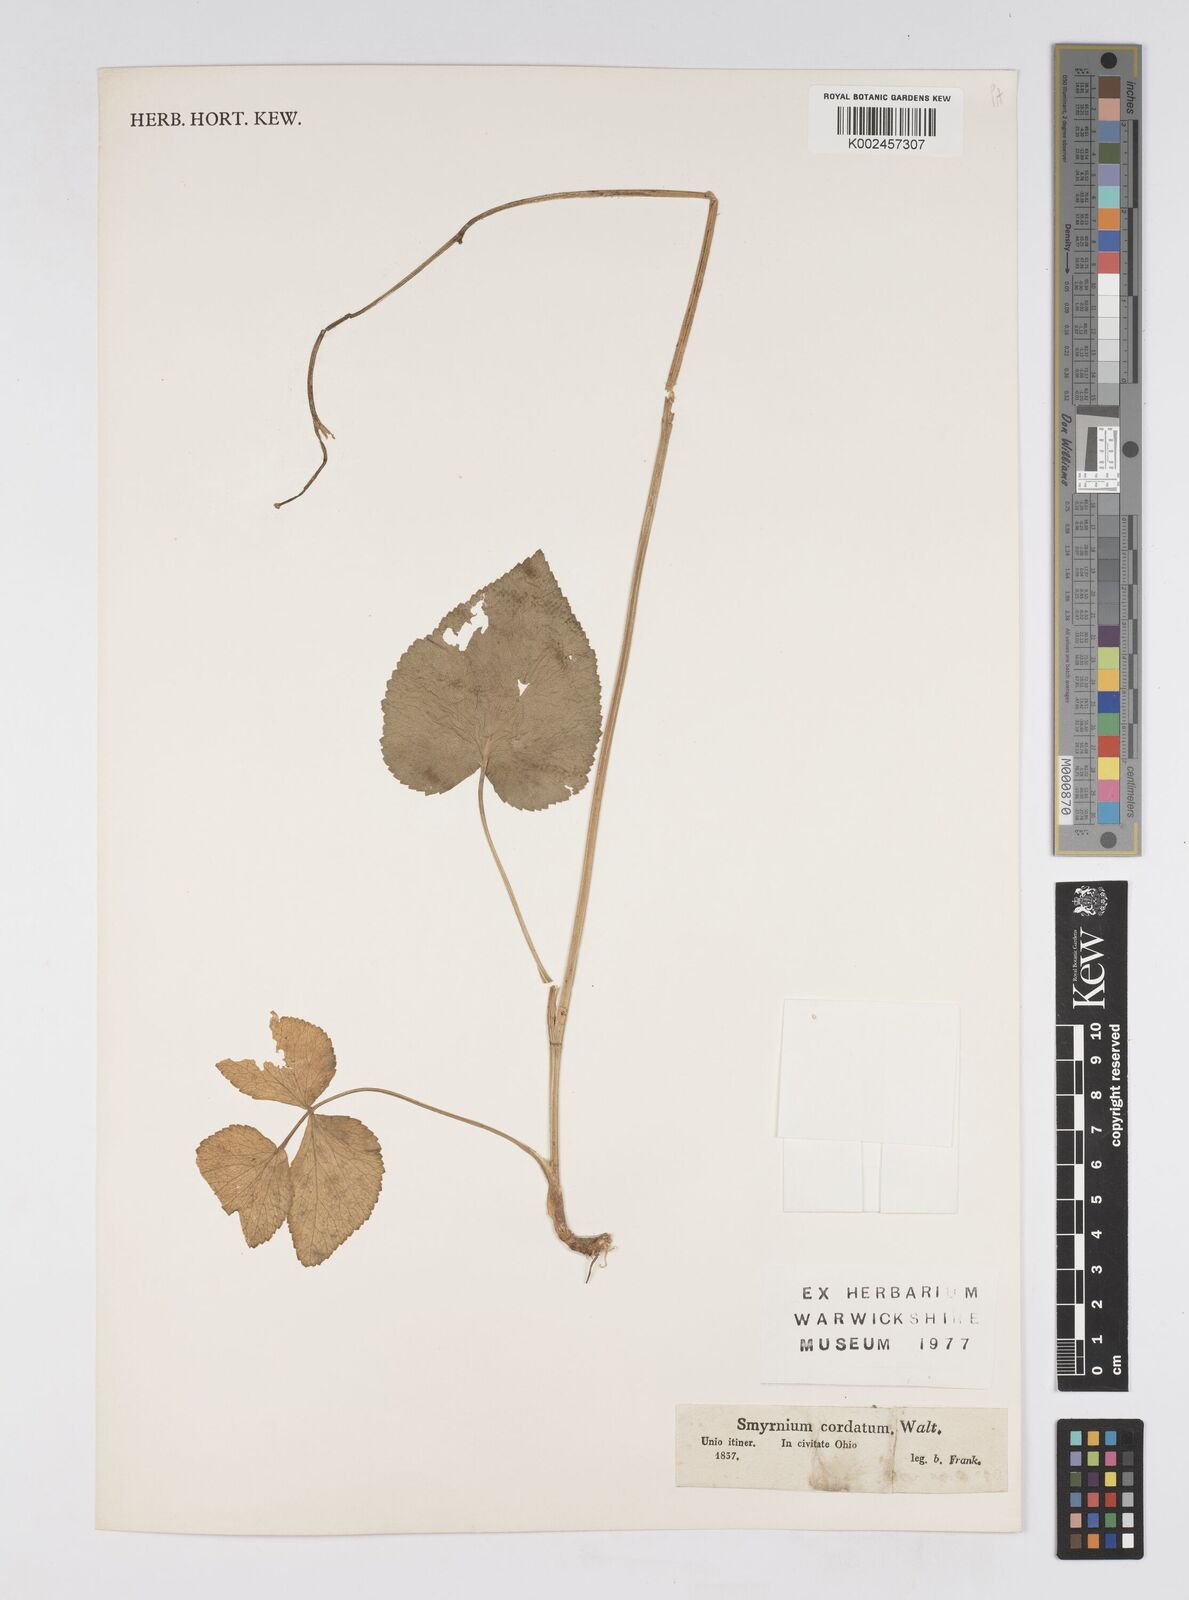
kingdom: Plantae
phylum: Tracheophyta
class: Magnoliopsida
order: Apiales
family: Apiaceae
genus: Thaspium
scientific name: Thaspium trifoliatum
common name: Purple meadow-parsnip
